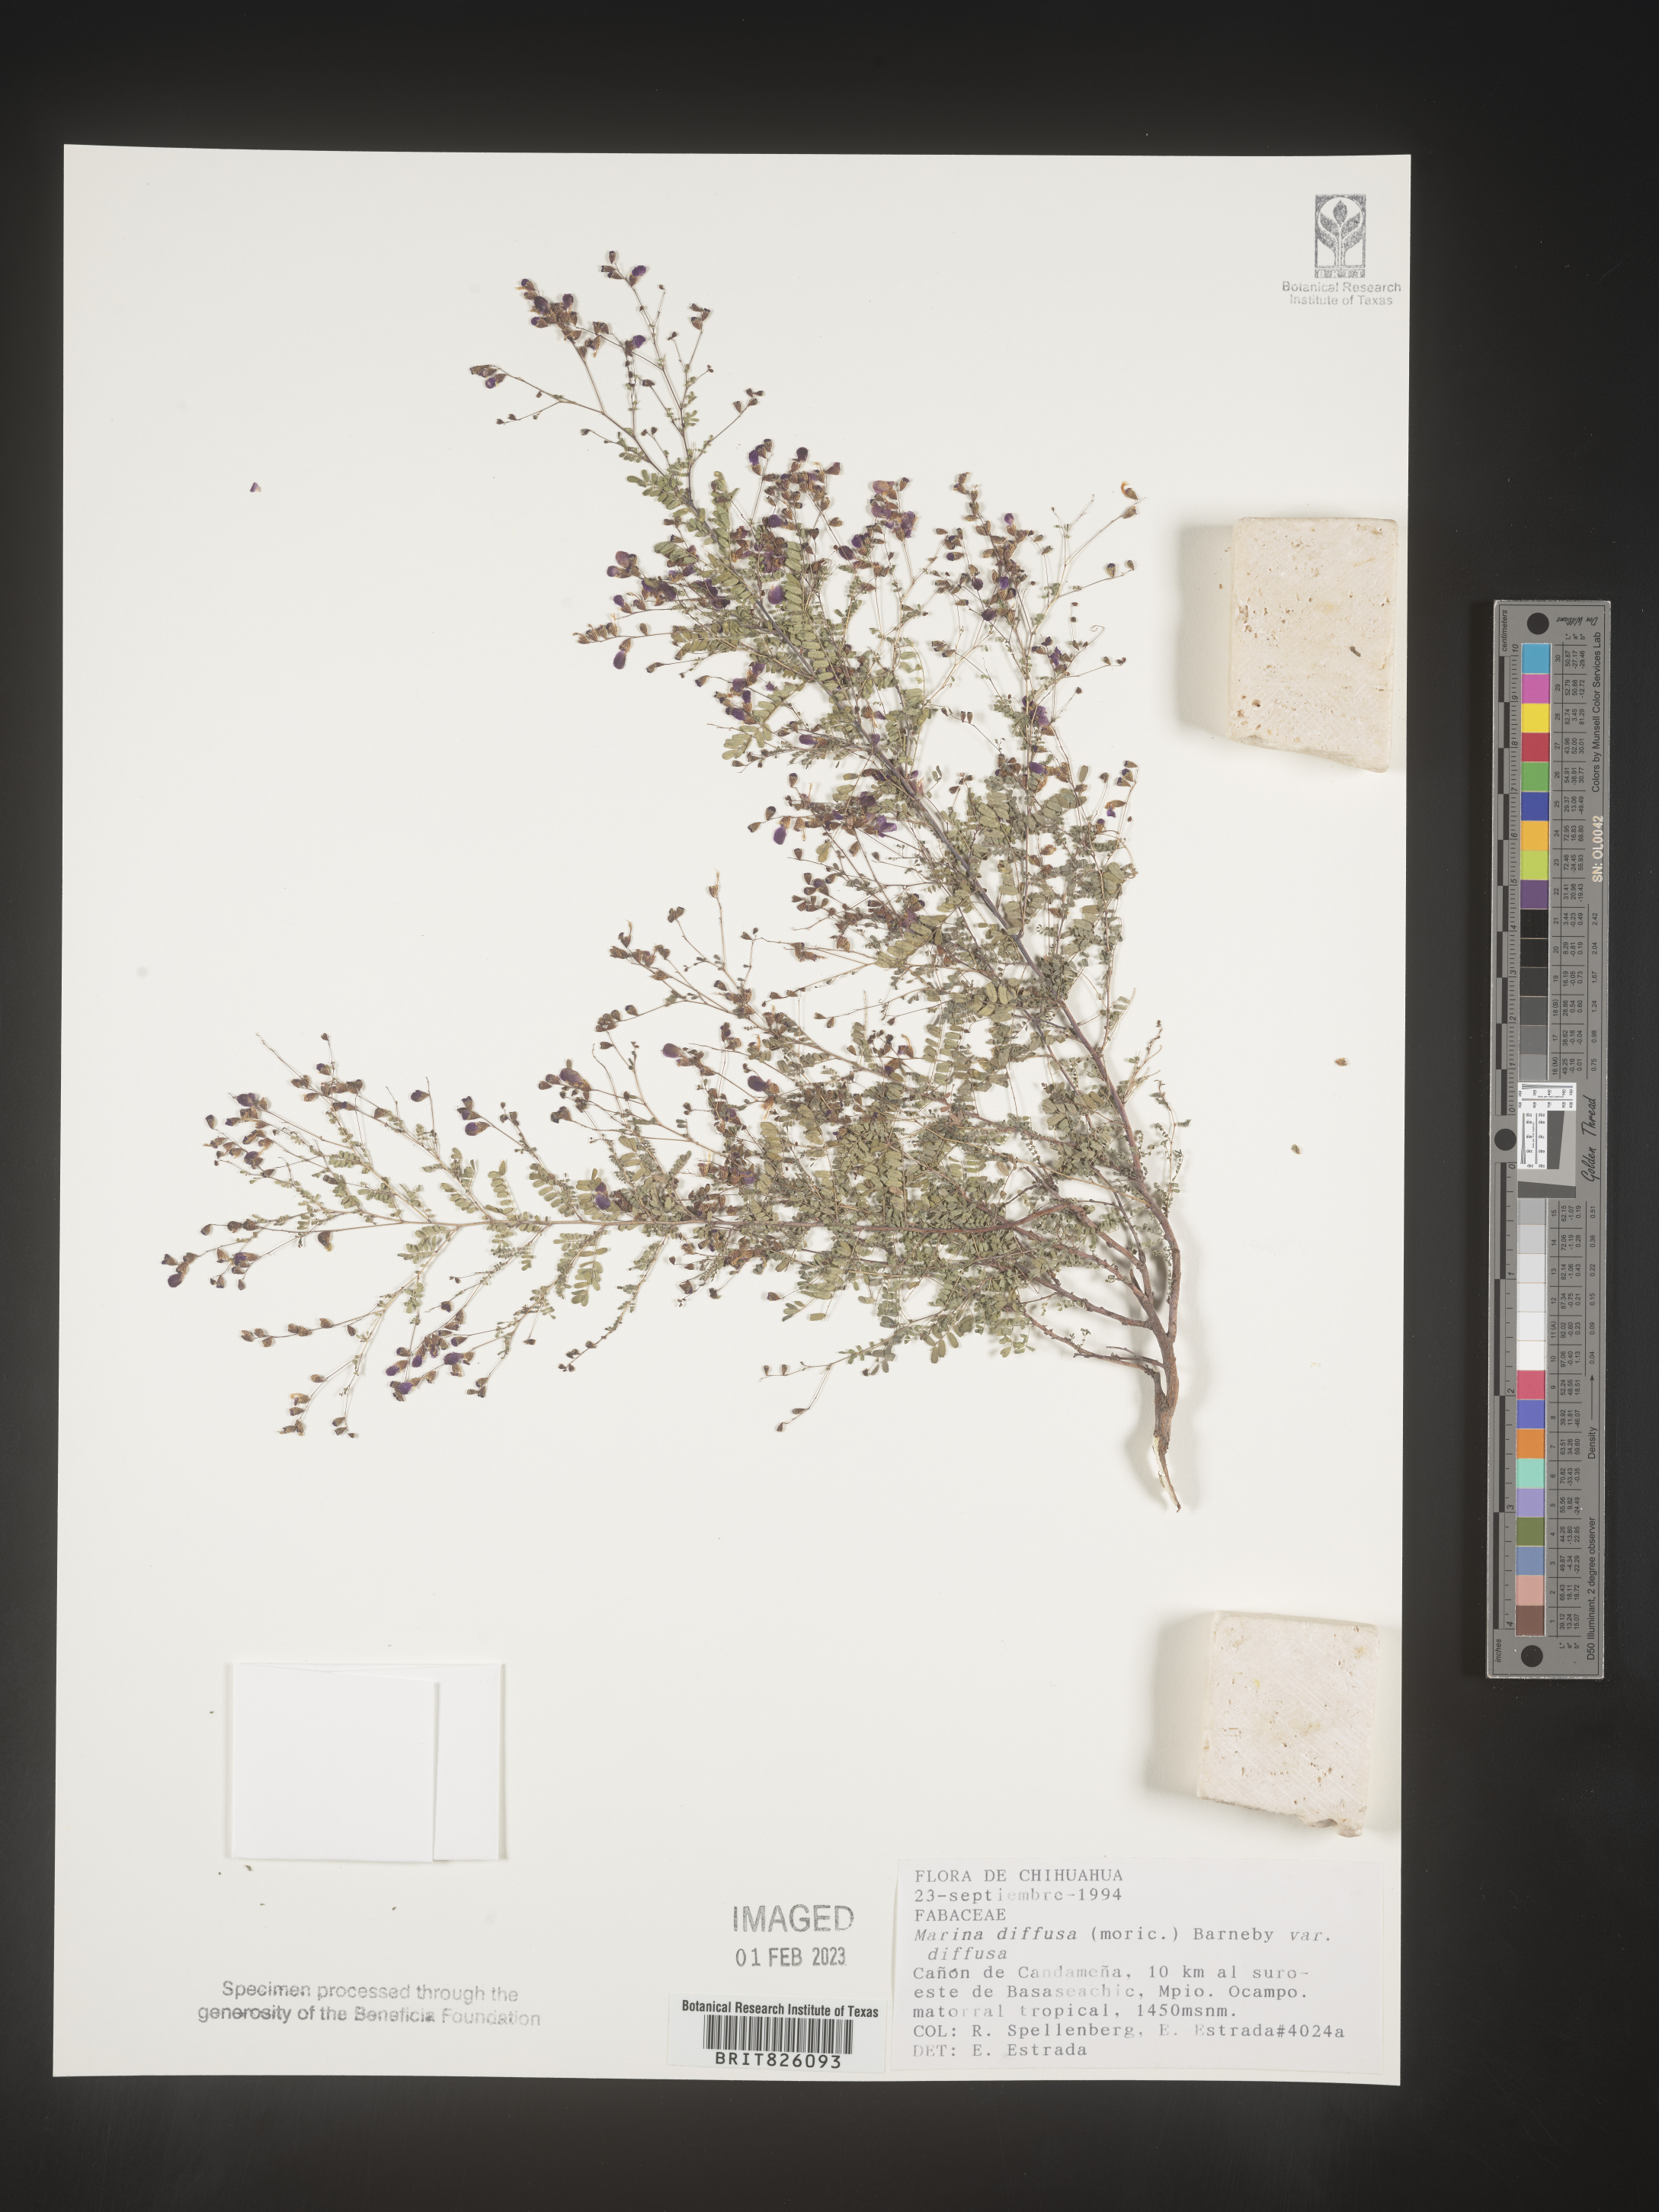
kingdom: Plantae
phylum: Tracheophyta
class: Magnoliopsida
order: Fabales
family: Fabaceae
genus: Marina
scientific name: Marina
